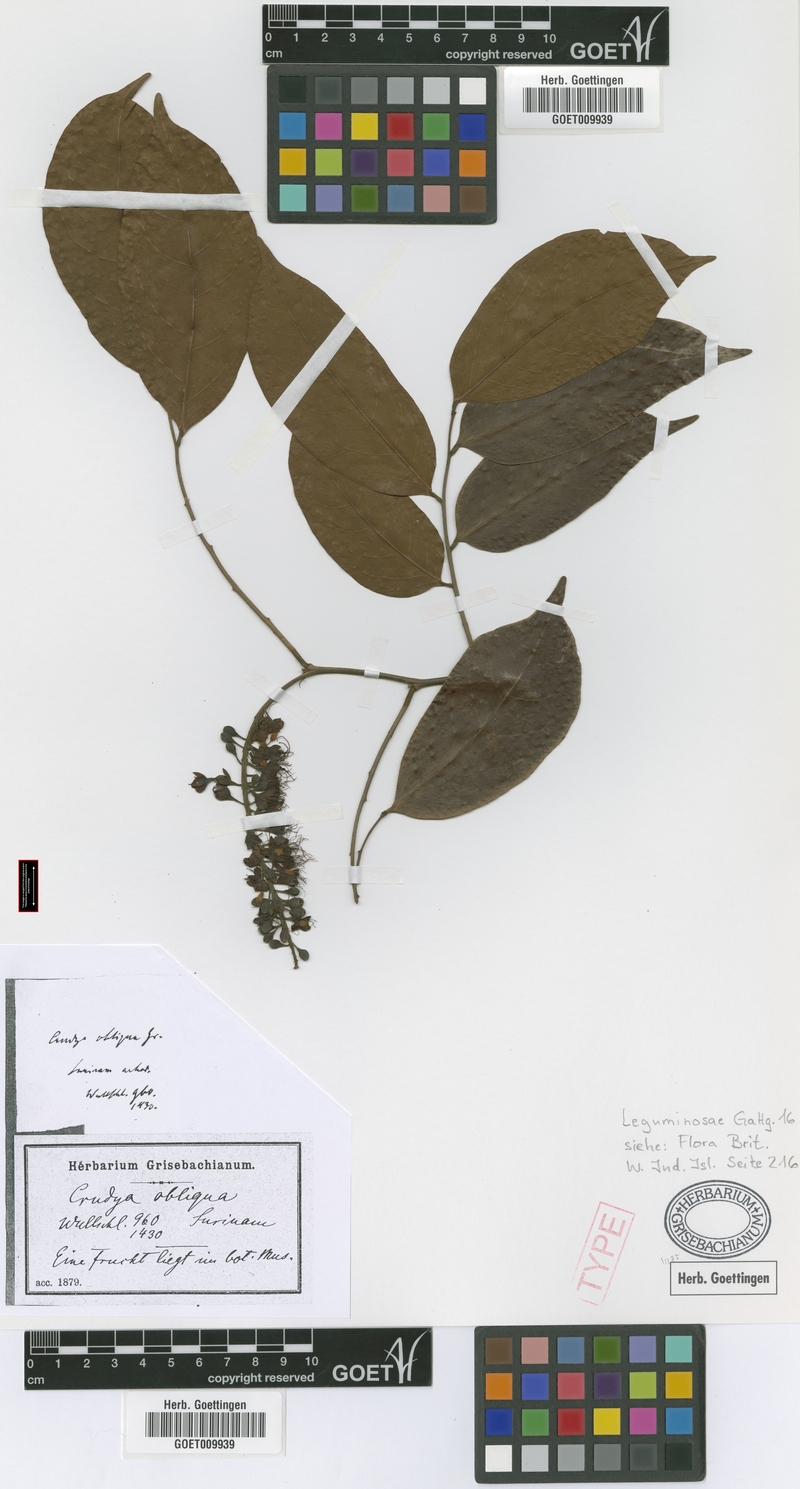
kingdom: Plantae
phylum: Tracheophyta
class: Magnoliopsida
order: Fabales
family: Fabaceae
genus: Crudia
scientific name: Crudia glaberrima
